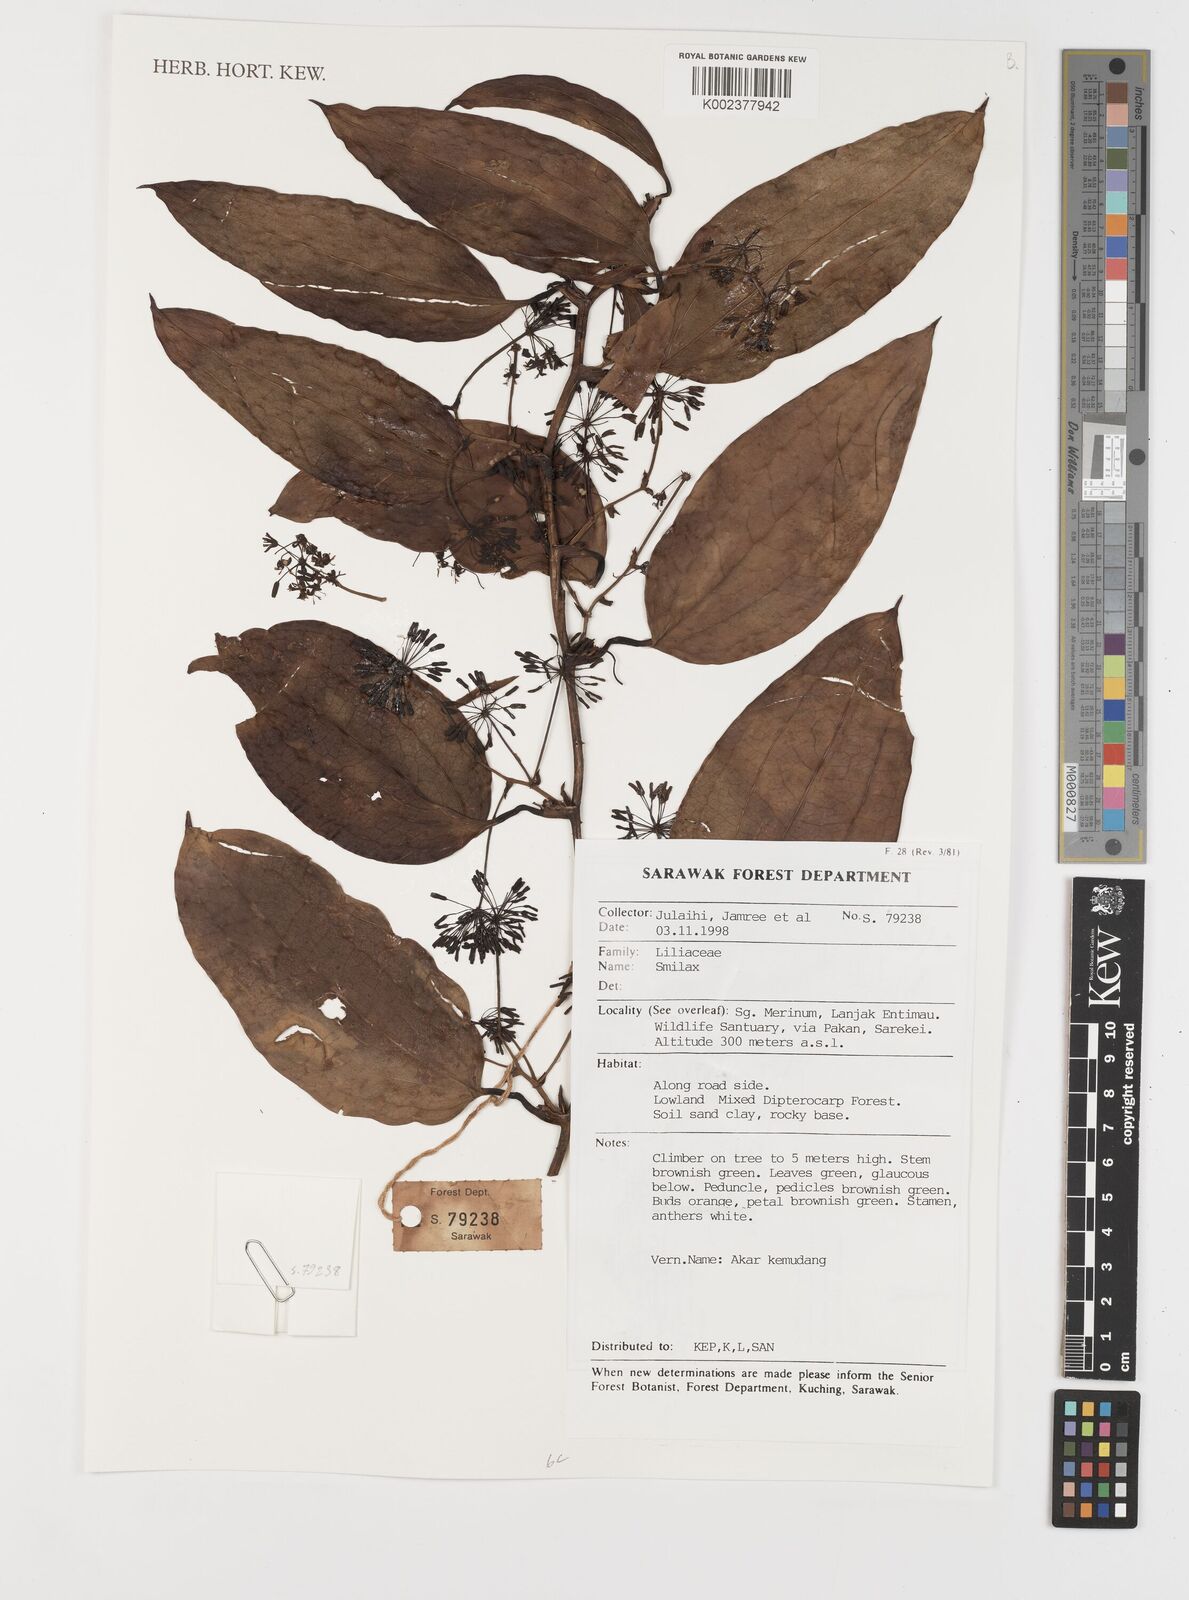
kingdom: Plantae
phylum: Tracheophyta
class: Liliopsida
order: Liliales
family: Smilacaceae
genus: Smilax
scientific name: Smilax
